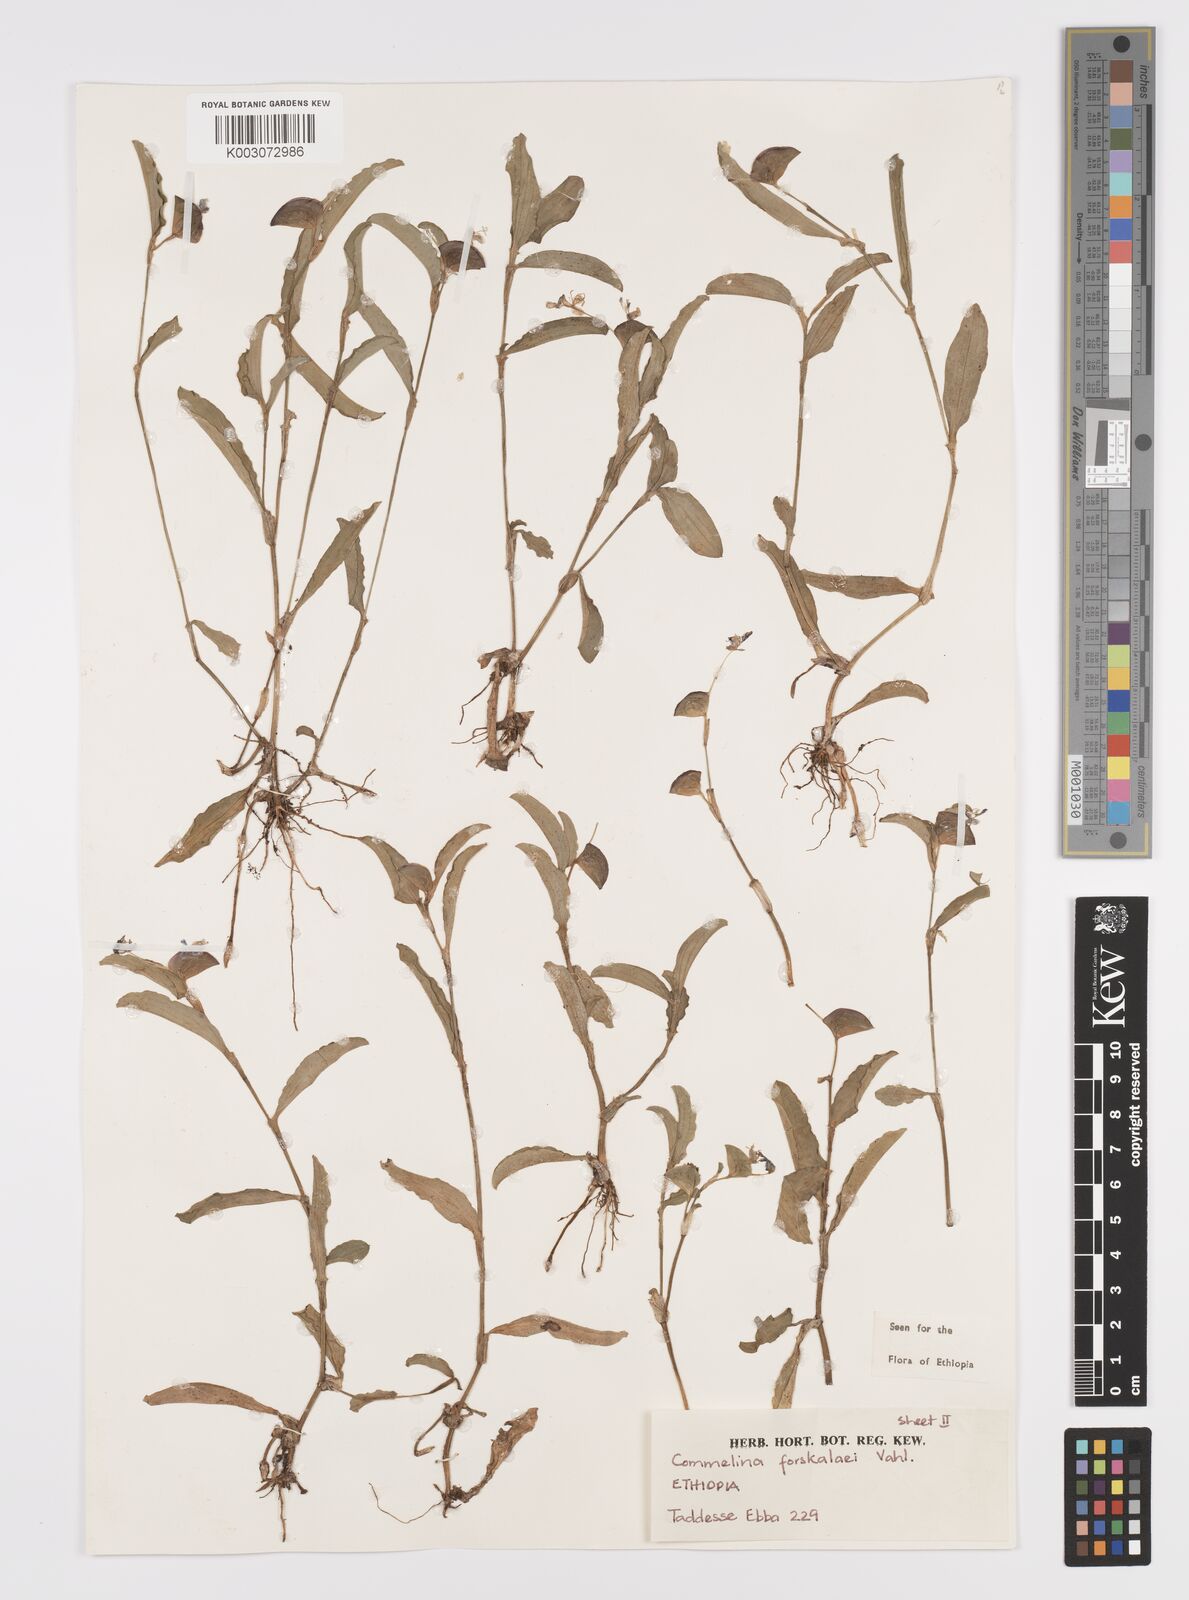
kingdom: Plantae
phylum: Tracheophyta
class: Liliopsida
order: Commelinales
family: Commelinaceae
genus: Commelina
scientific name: Commelina forskaolii
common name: Rat's ear
